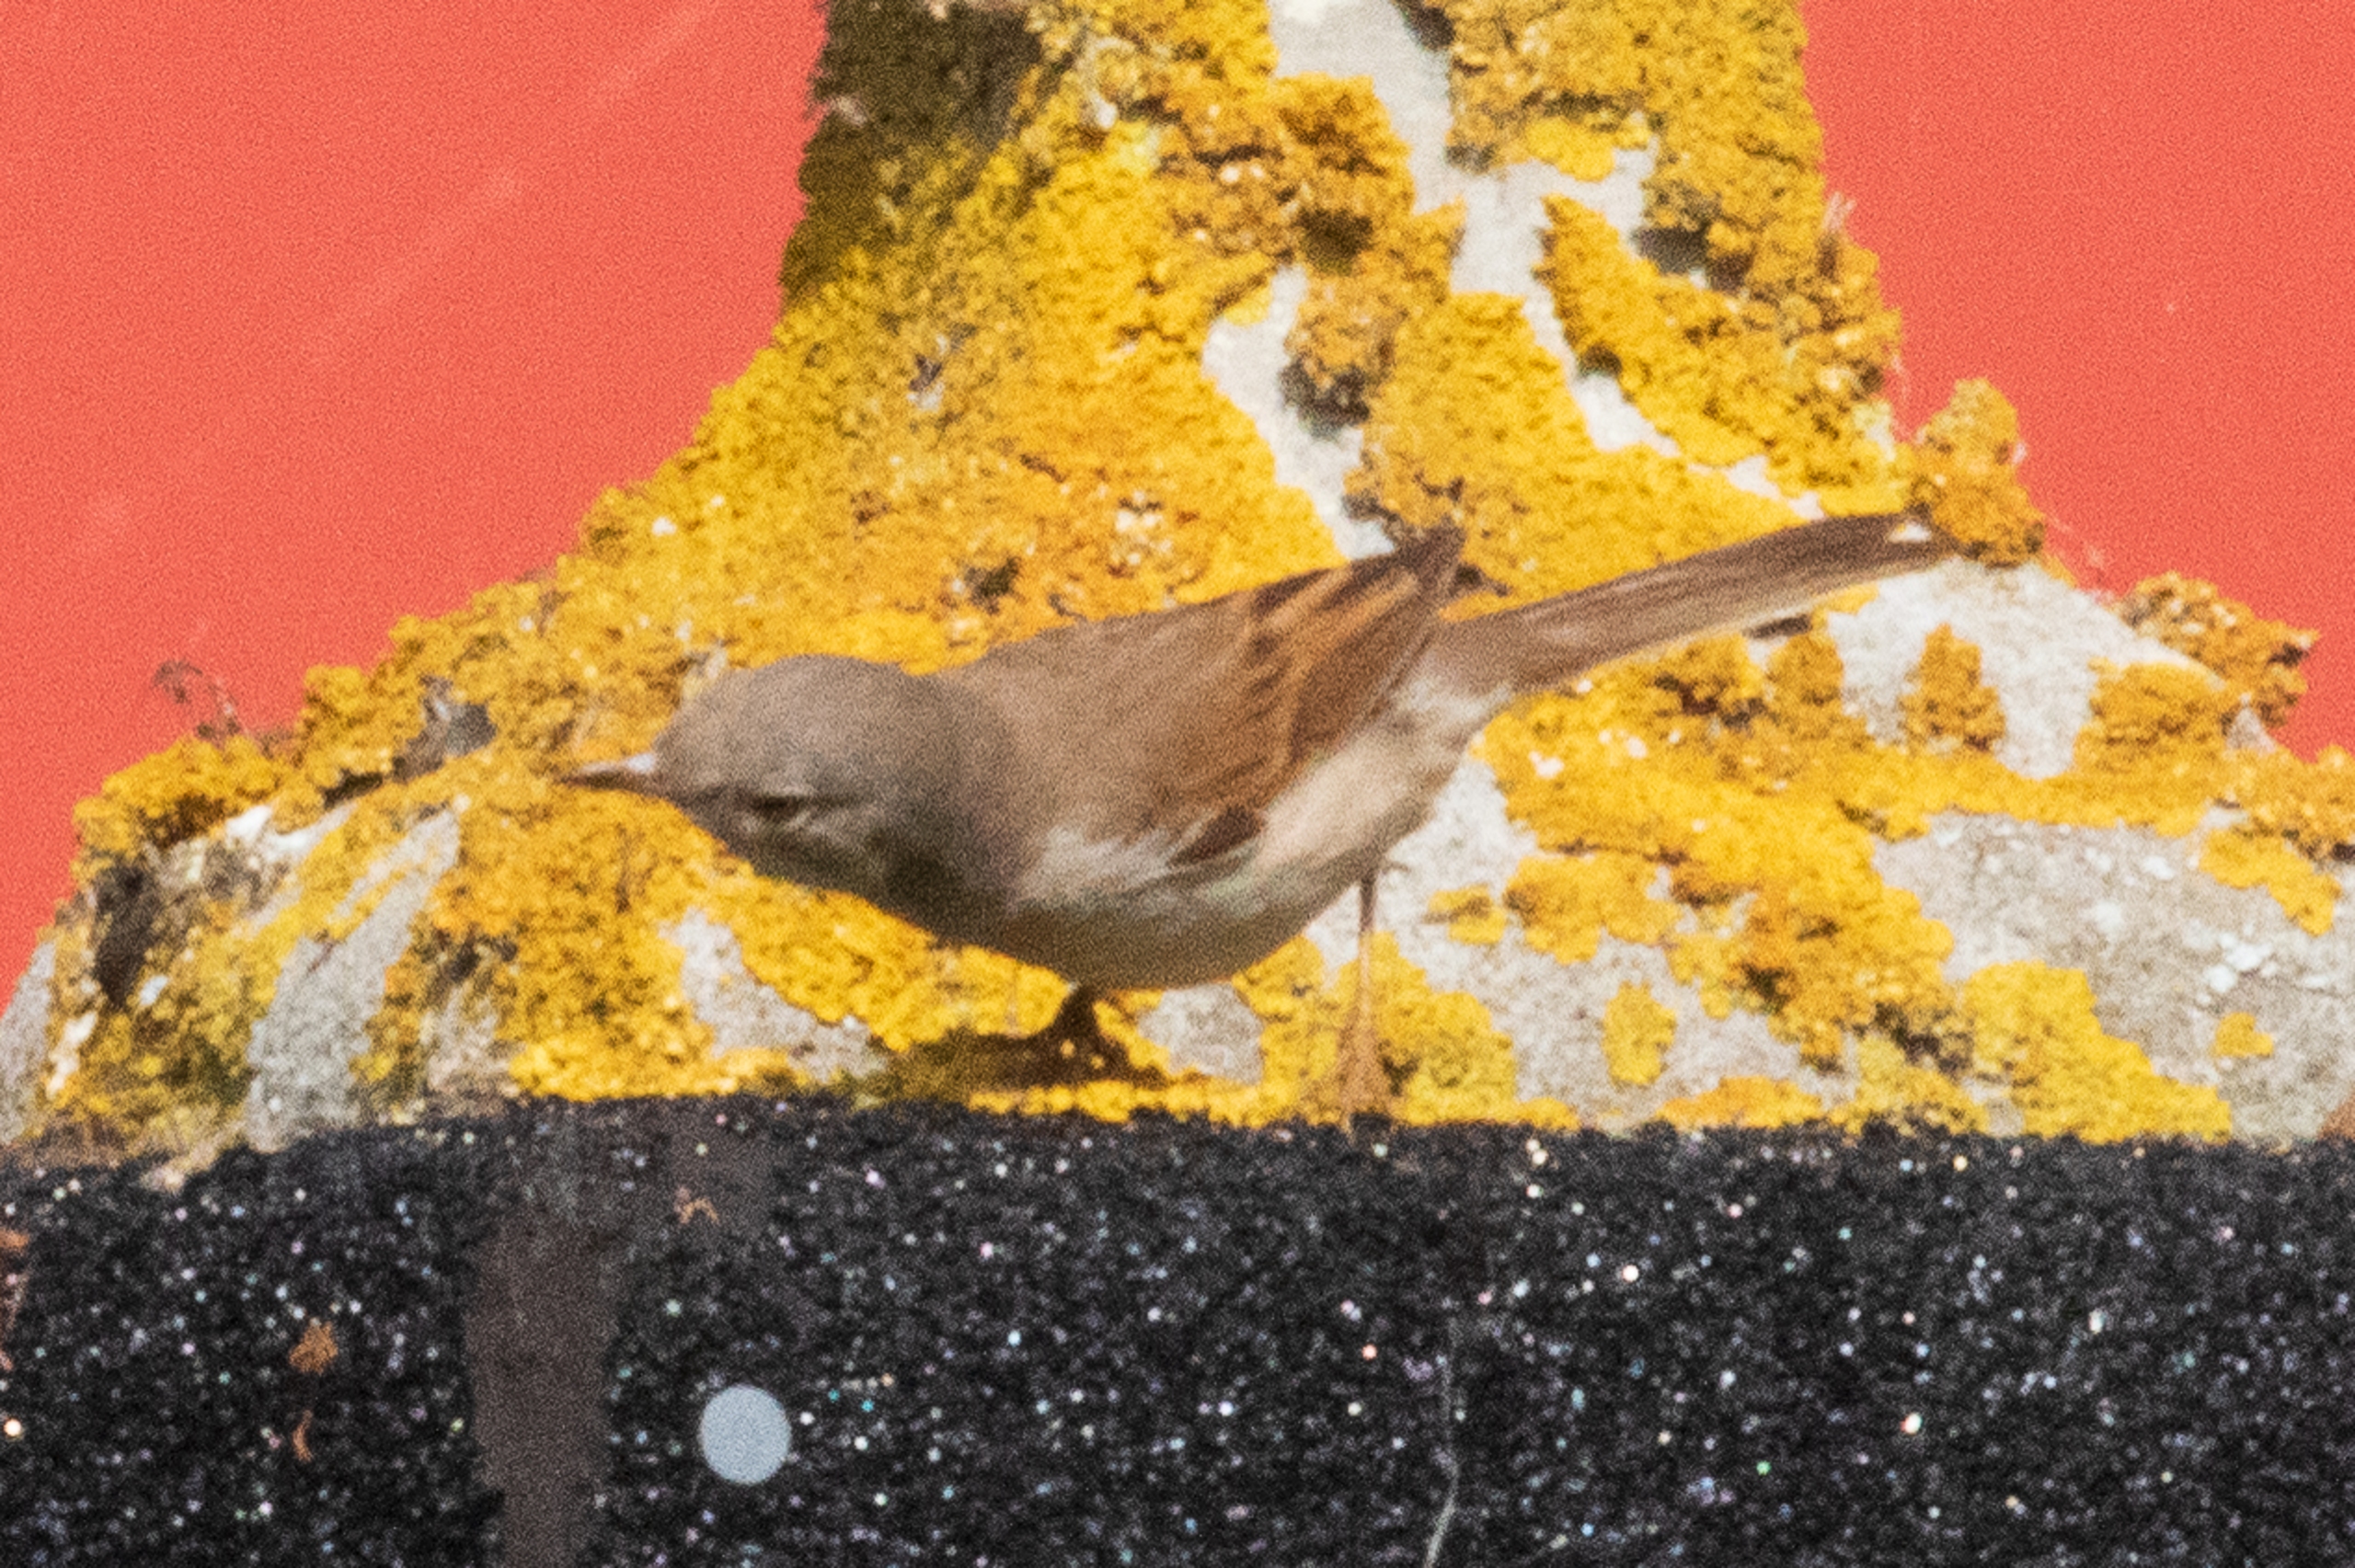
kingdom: Animalia
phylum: Chordata
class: Aves
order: Passeriformes
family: Sylviidae
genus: Sylvia
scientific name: Sylvia communis
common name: Tornsanger
